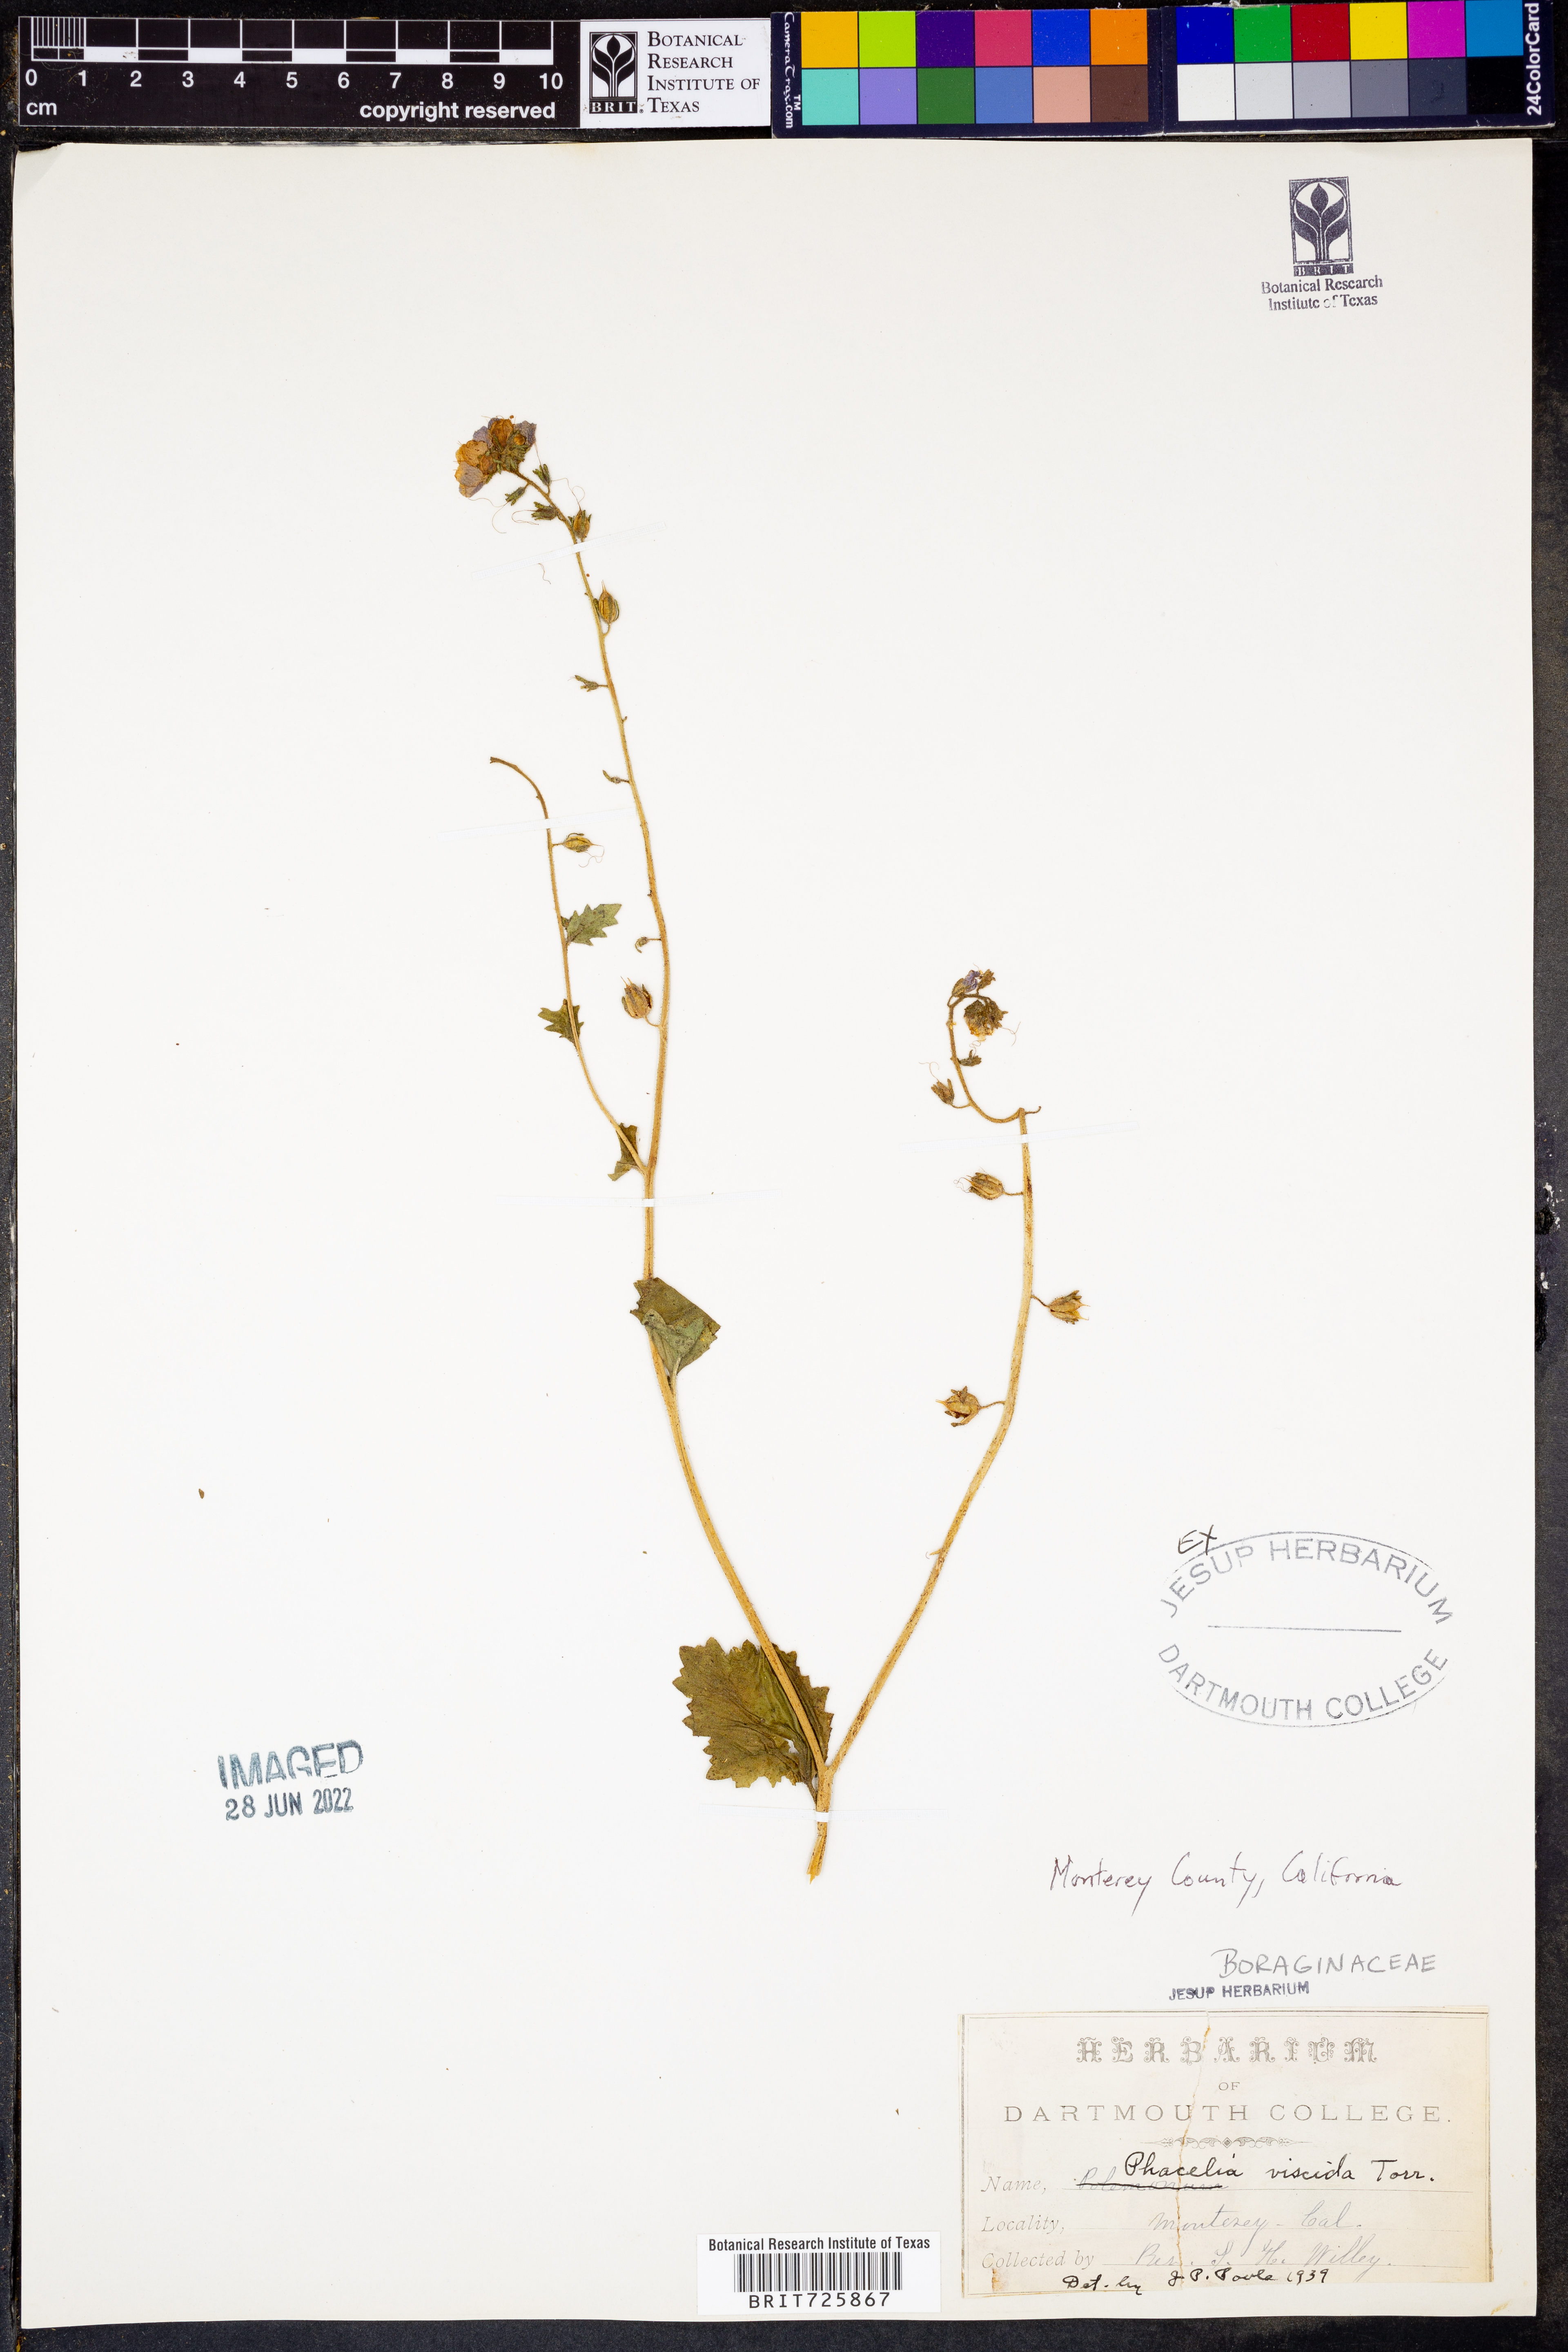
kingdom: Plantae
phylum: Tracheophyta
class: Magnoliopsida
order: Boraginales
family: Hydrophyllaceae
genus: Phacelia
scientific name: Phacelia
